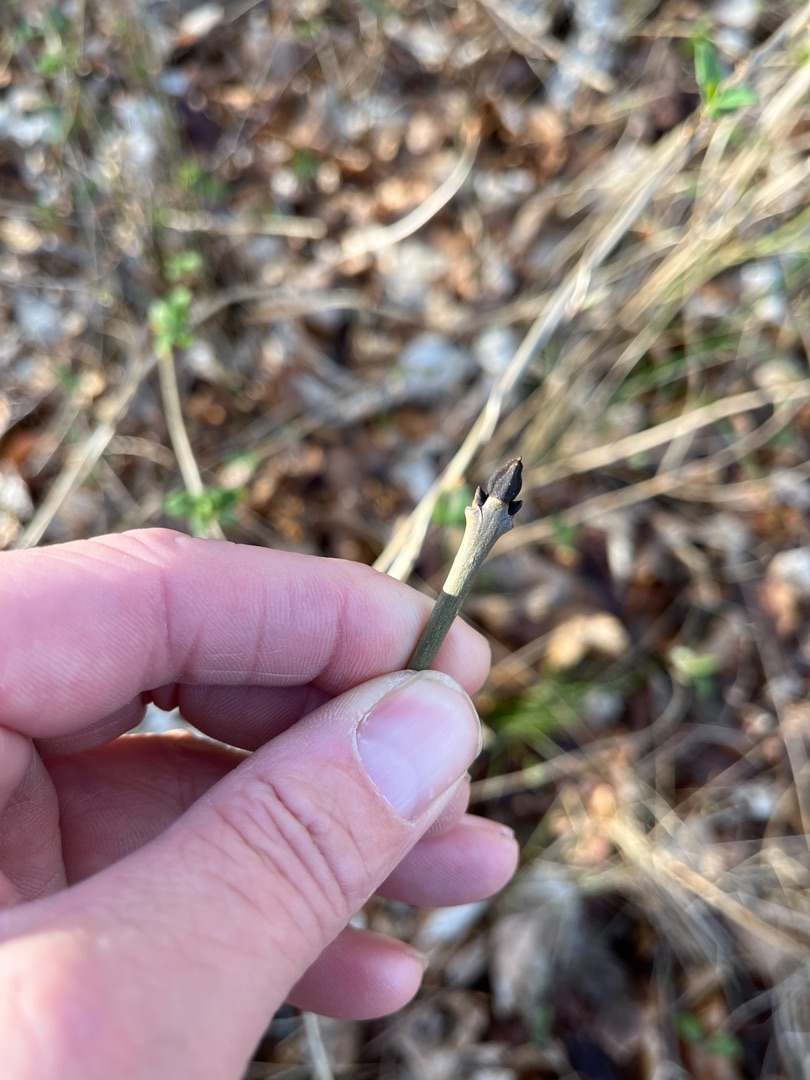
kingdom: Plantae
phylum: Tracheophyta
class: Magnoliopsida
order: Lamiales
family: Oleaceae
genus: Fraxinus
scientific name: Fraxinus excelsior
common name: Ask
